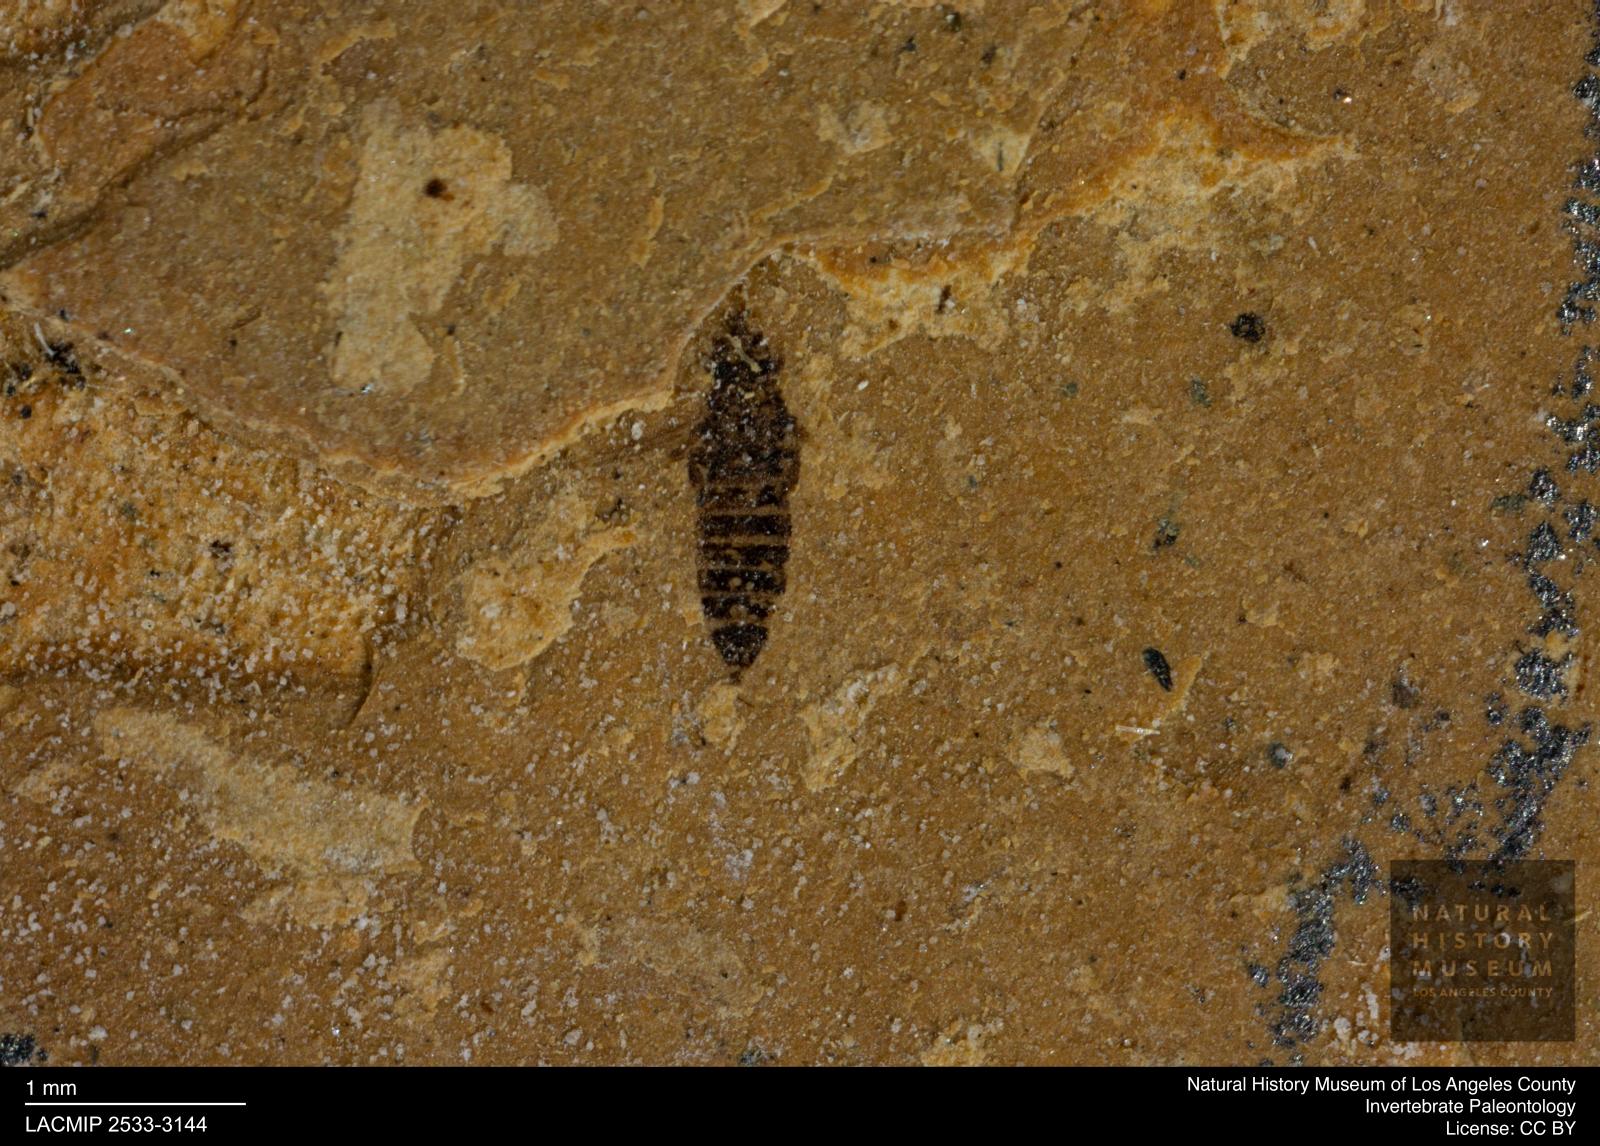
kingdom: Animalia
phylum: Arthropoda
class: Insecta
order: Thysanoptera
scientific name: Thysanoptera
